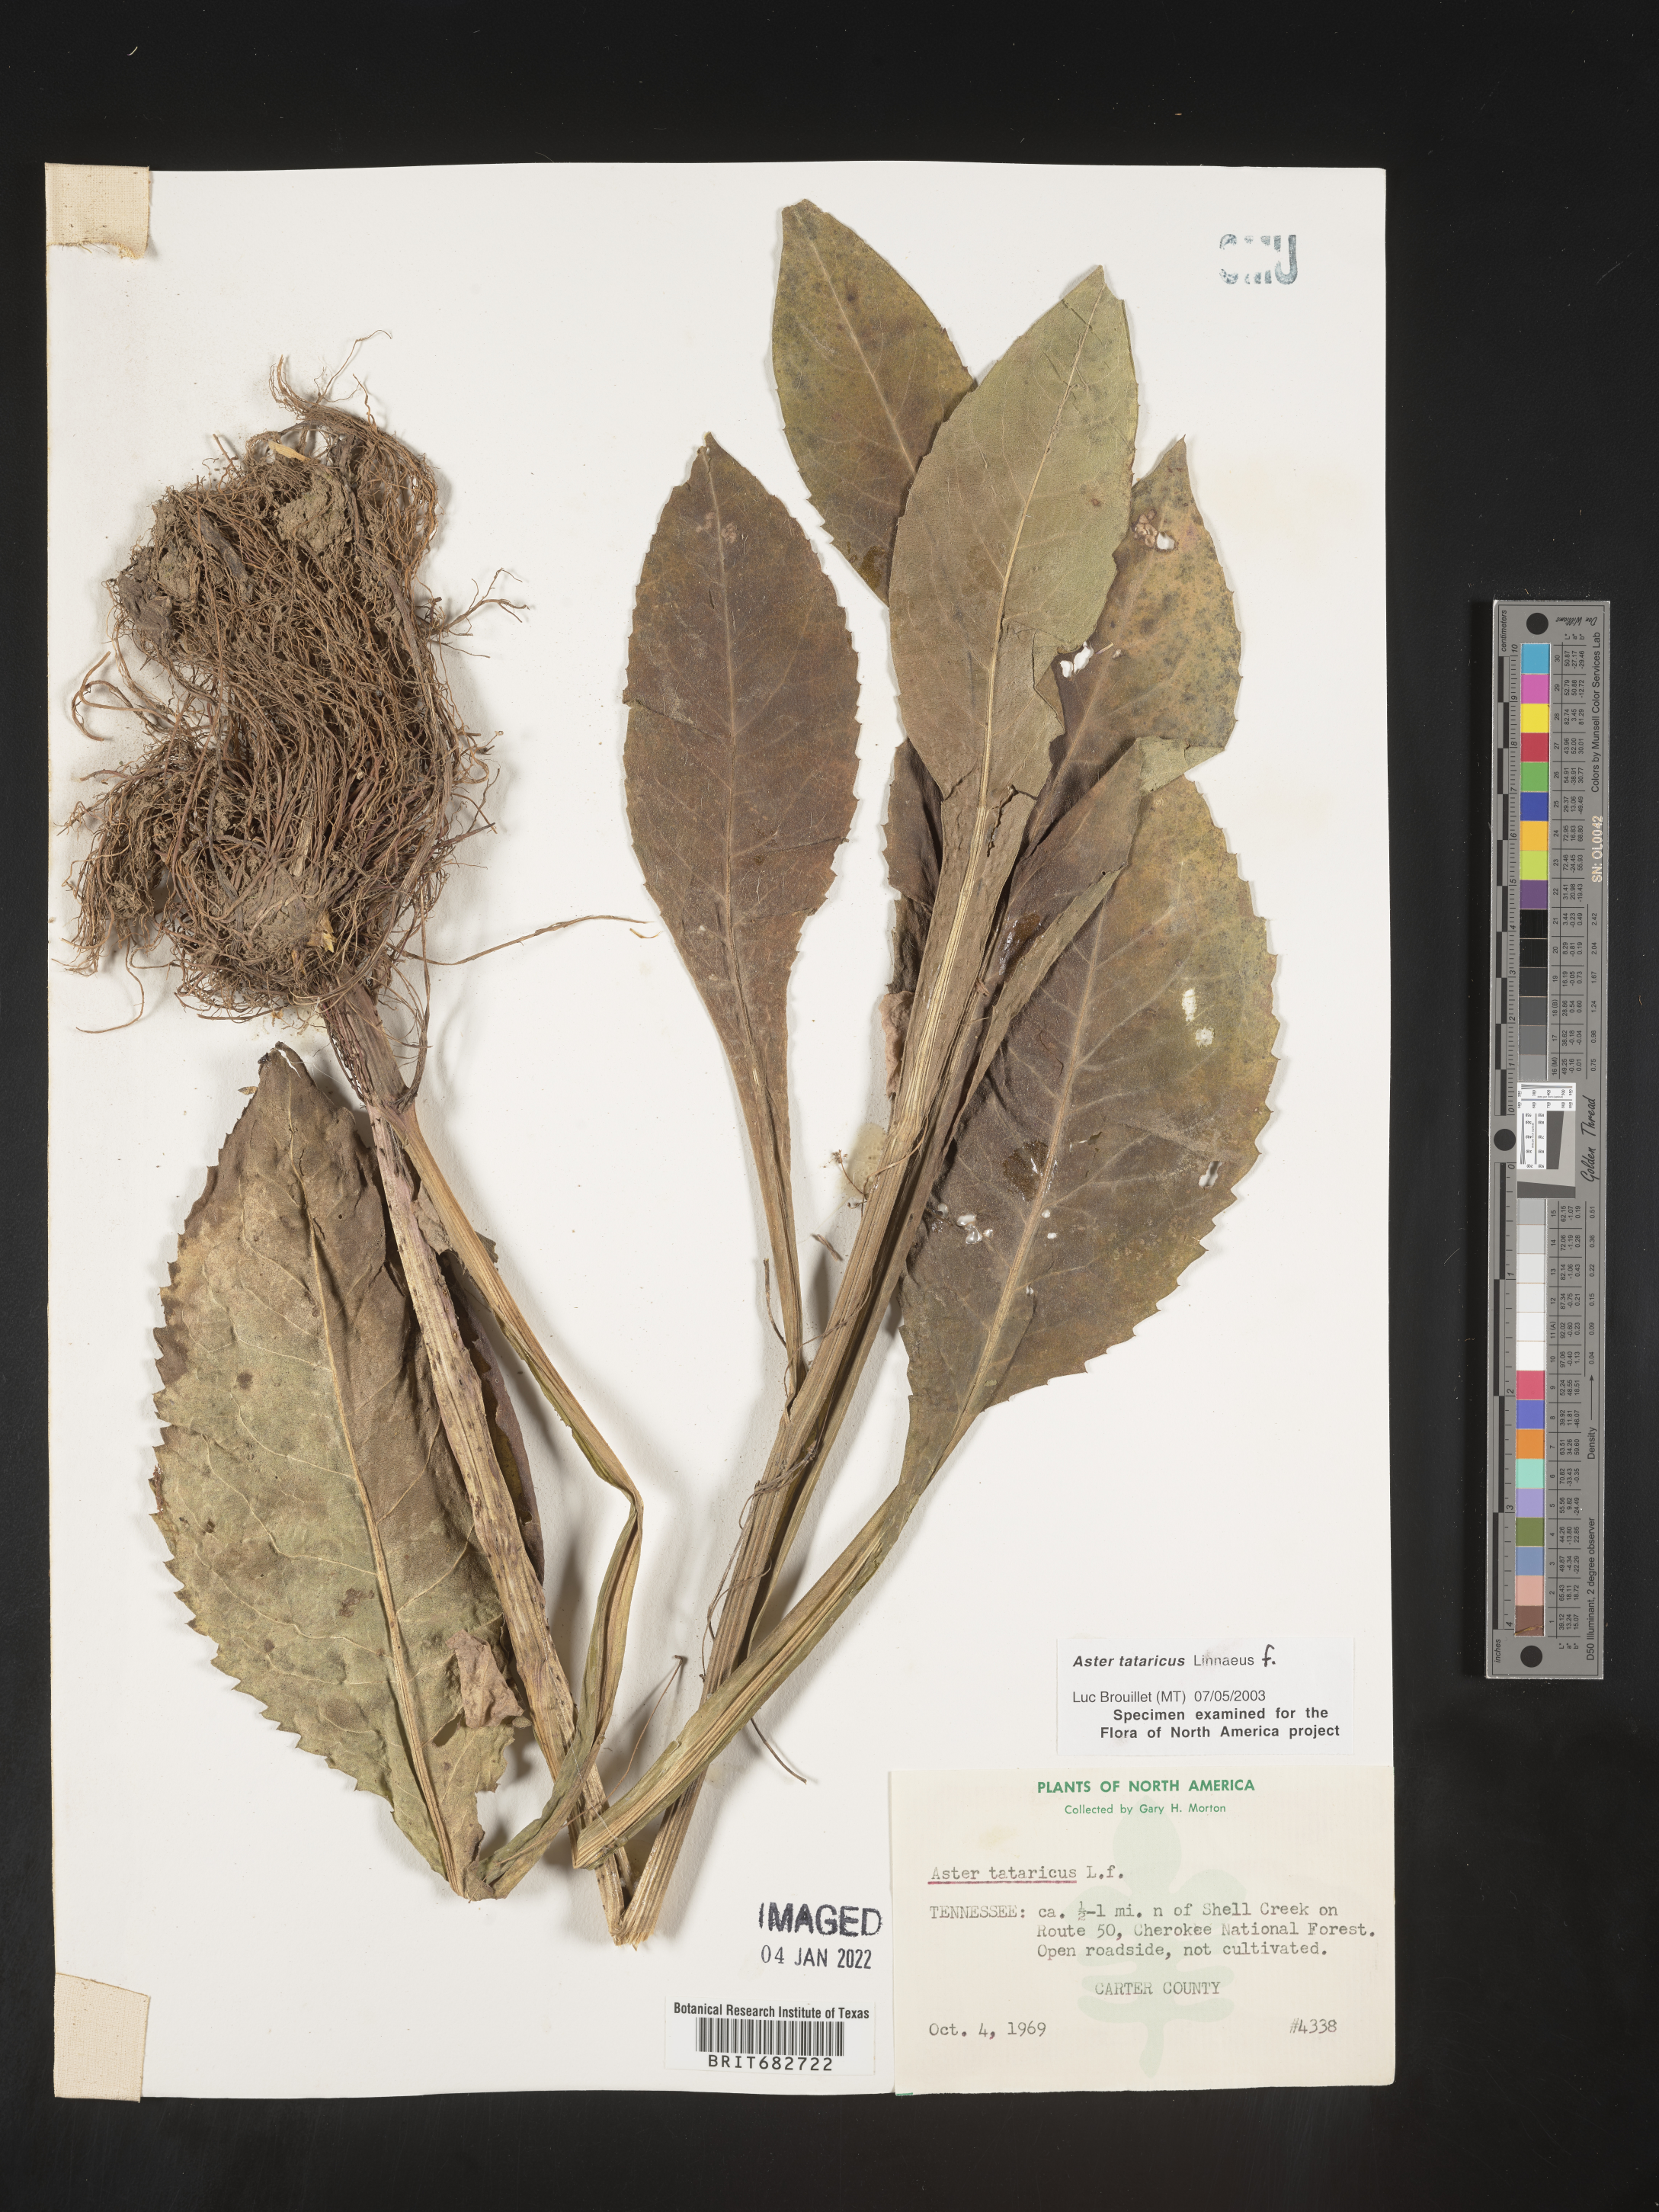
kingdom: Plantae
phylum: Tracheophyta
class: Magnoliopsida
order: Asterales
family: Asteraceae
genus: Aster
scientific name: Aster tataricus
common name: Tatarian aster
